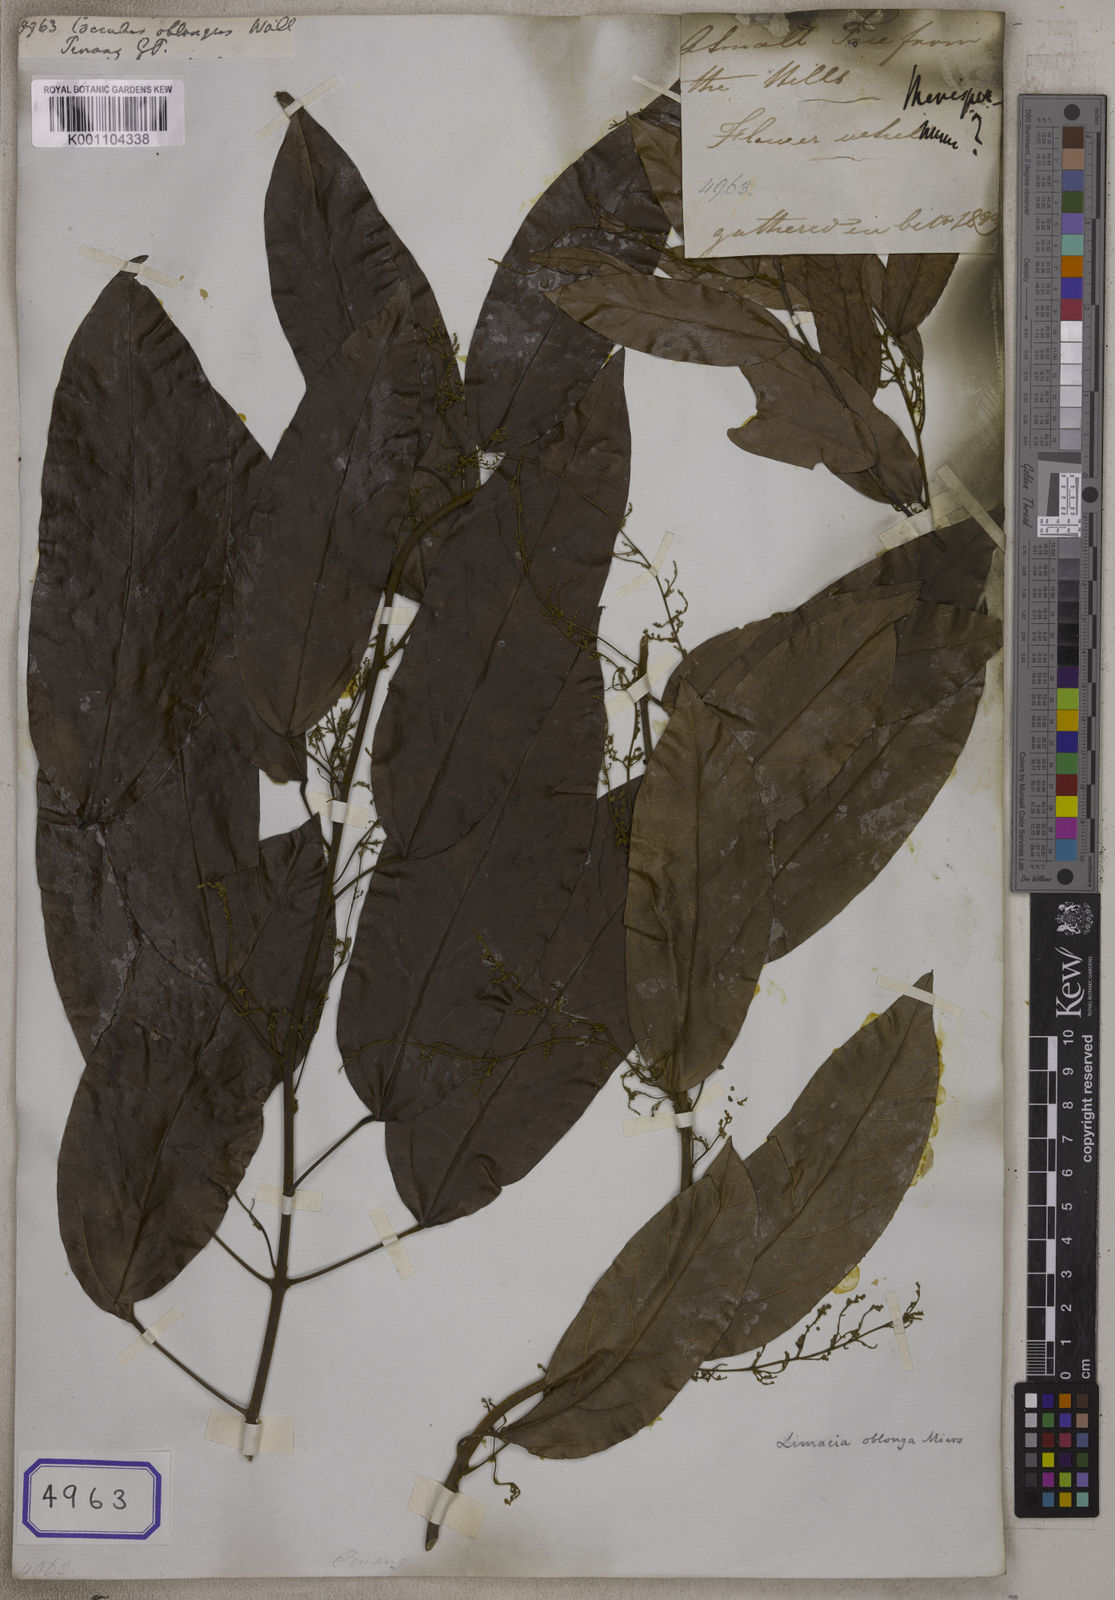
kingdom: Plantae
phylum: Tracheophyta
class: Magnoliopsida
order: Ranunculales
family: Menispermaceae
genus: Limacia
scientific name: Limacia oblonga
